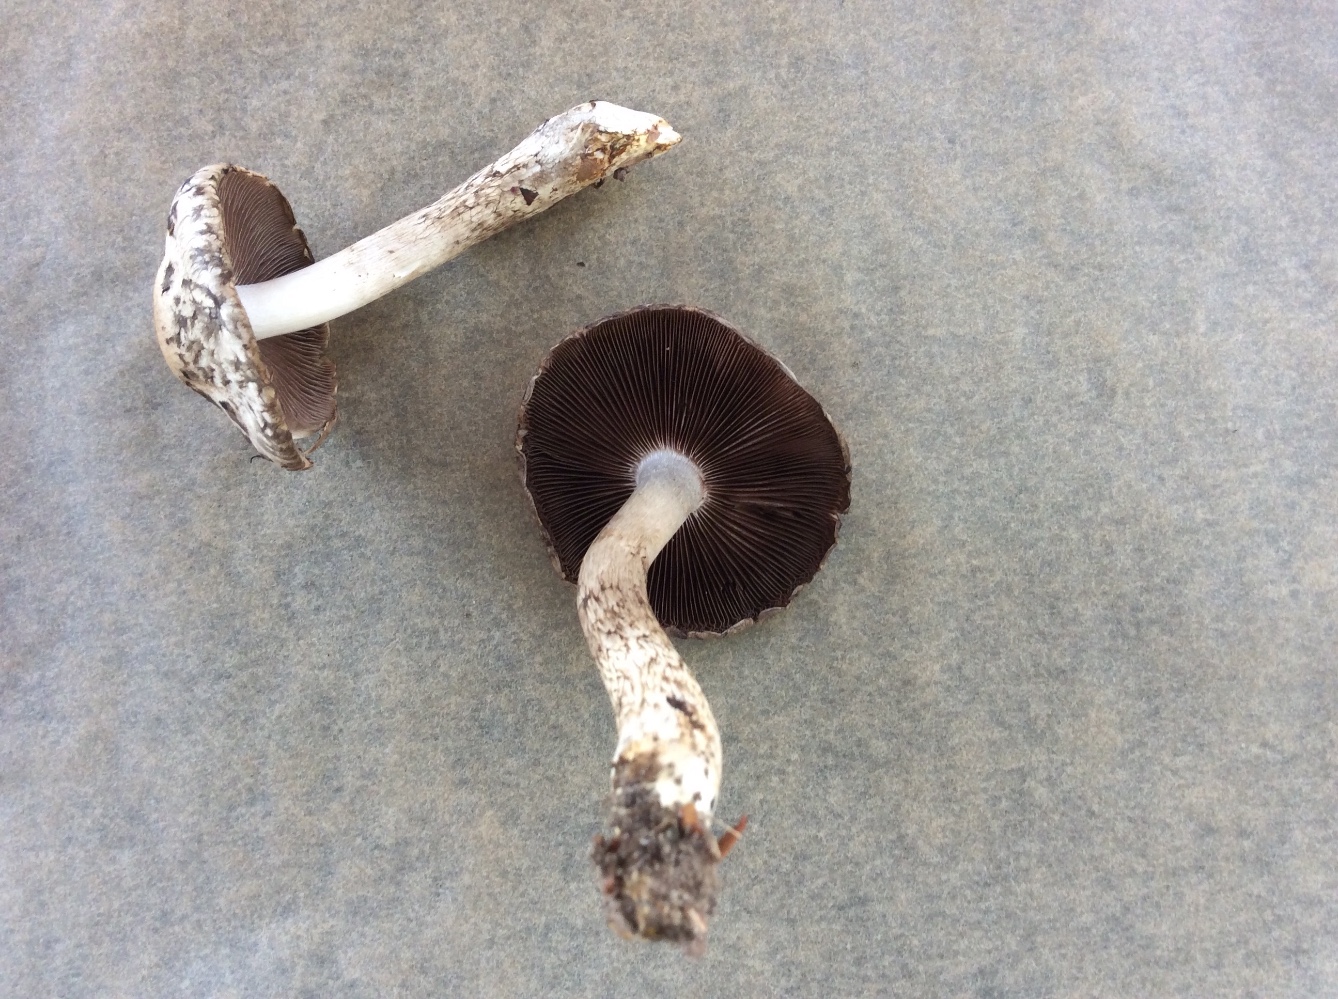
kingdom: Fungi
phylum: Basidiomycota
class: Agaricomycetes
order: Agaricales
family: Psathyrellaceae
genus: Psathyrella
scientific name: Psathyrella cotonea
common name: skællet mørkhat
